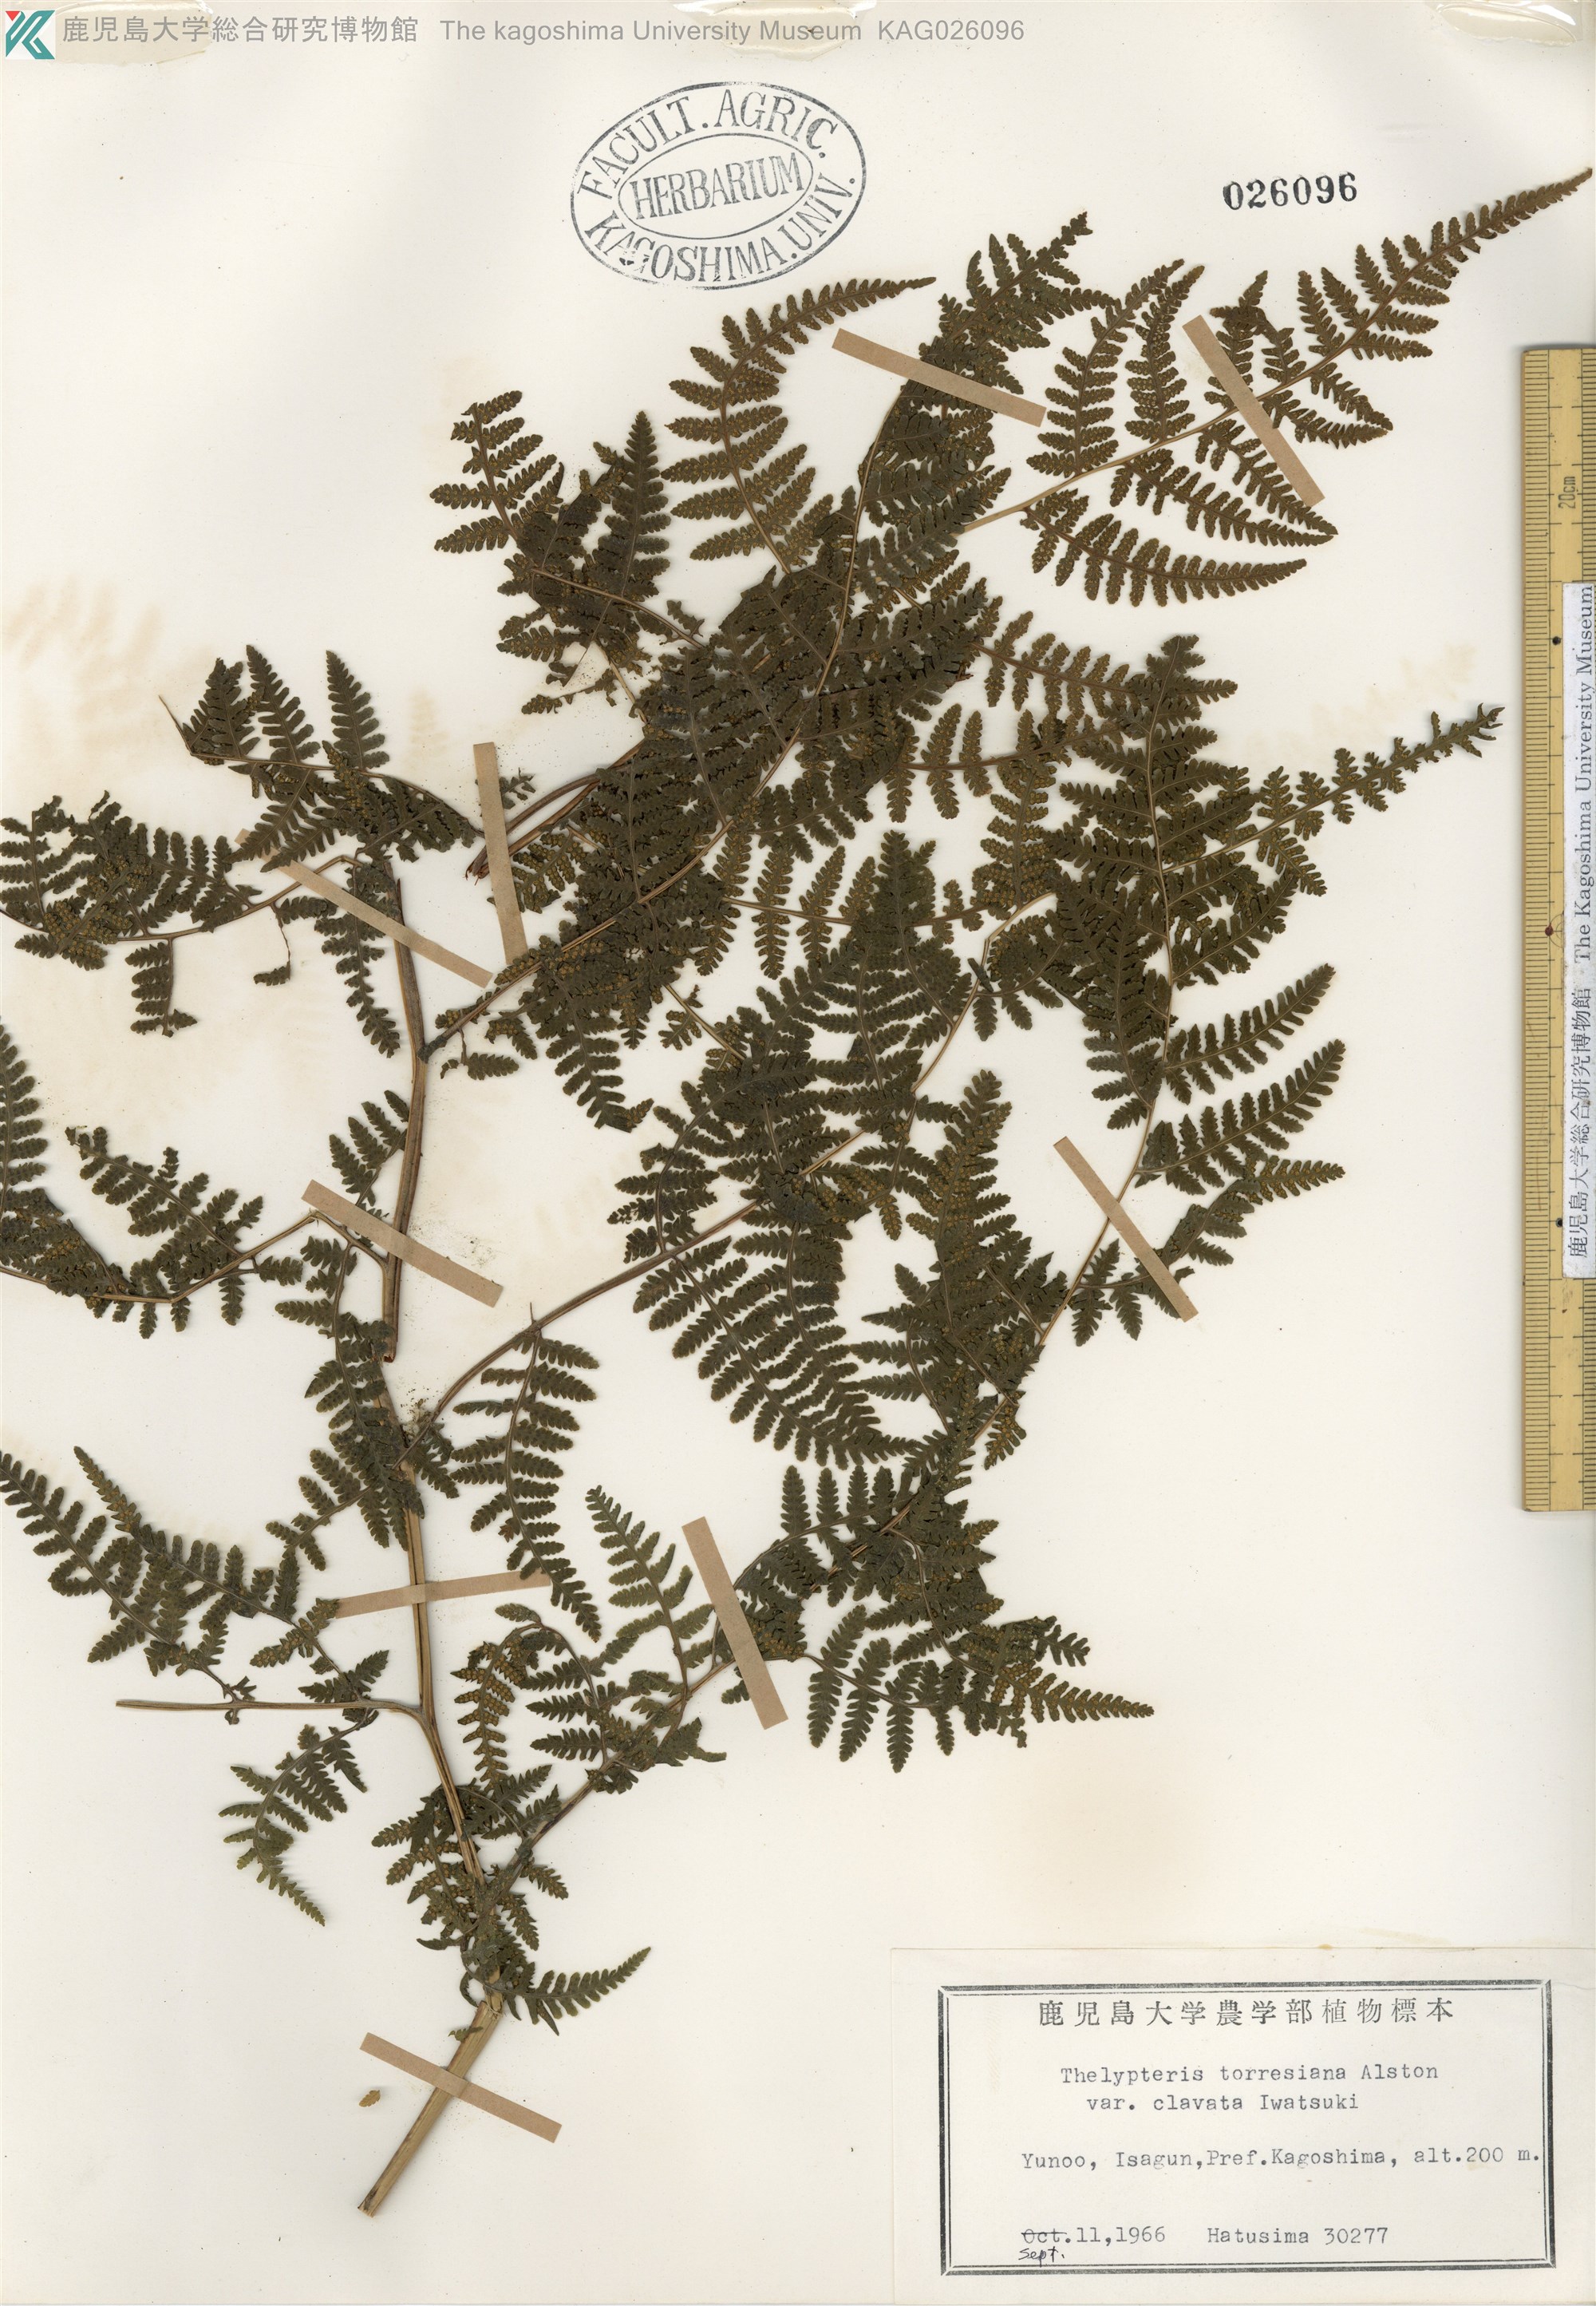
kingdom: Plantae
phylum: Tracheophyta
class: Polypodiopsida
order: Polypodiales
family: Thelypteridaceae
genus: Macrothelypteris
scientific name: Macrothelypteris viridifrons
